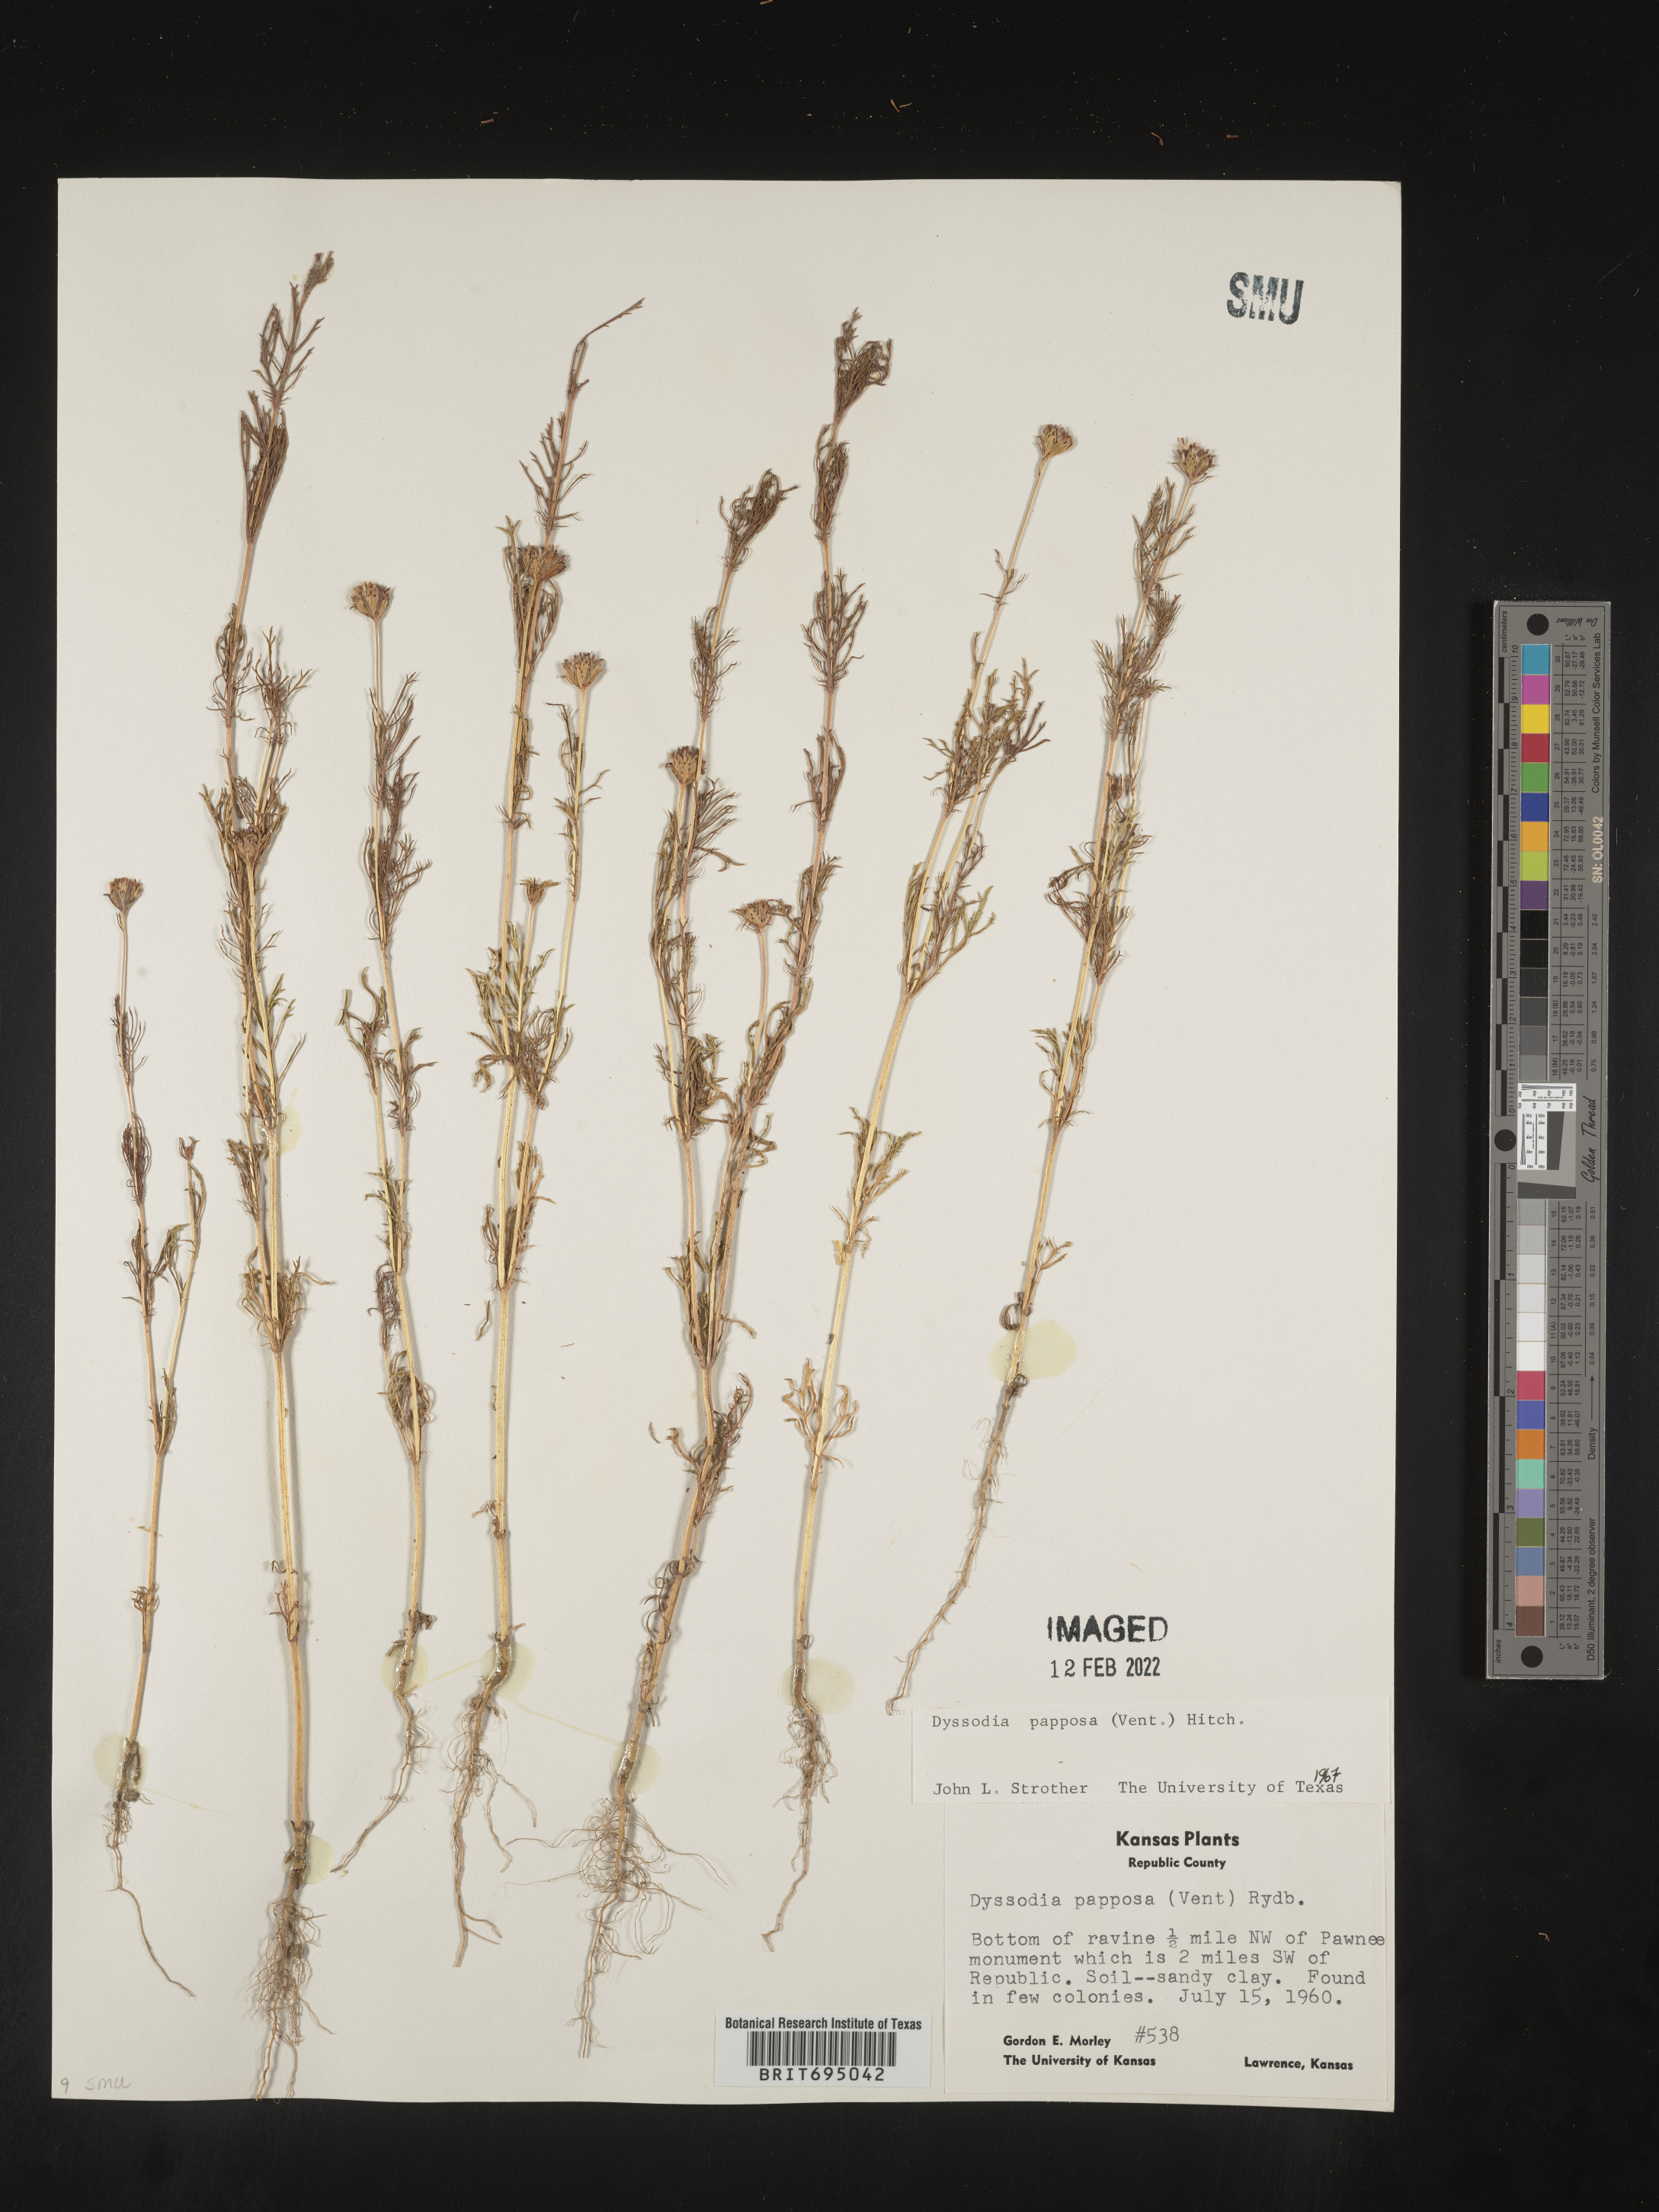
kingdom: Plantae
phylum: Tracheophyta
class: Magnoliopsida
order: Asterales
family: Asteraceae
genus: Dyssodia
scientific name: Dyssodia papposa
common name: Dogweed
